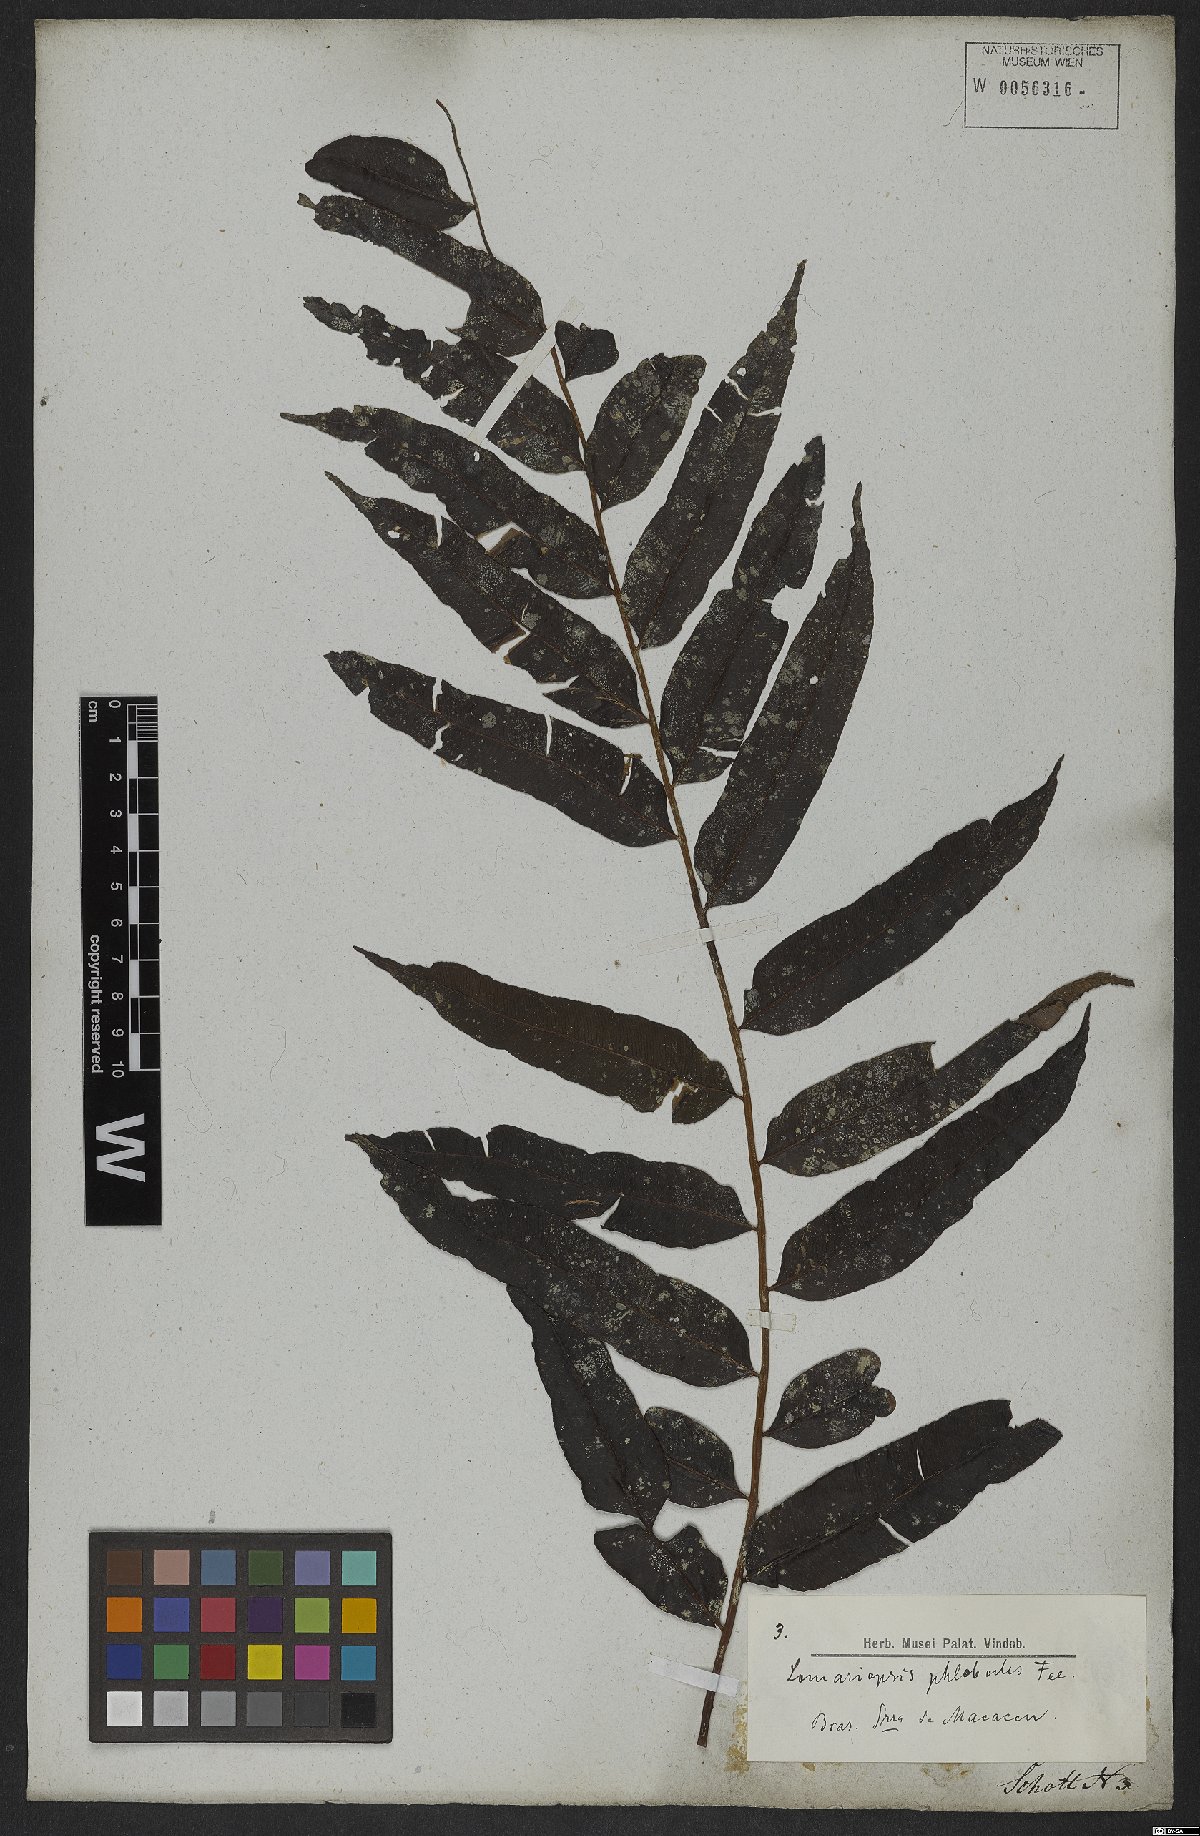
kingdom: Plantae
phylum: Tracheophyta
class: Polypodiopsida
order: Polypodiales
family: Lomariopsidaceae
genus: Lomariopsis
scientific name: Lomariopsis marginata
